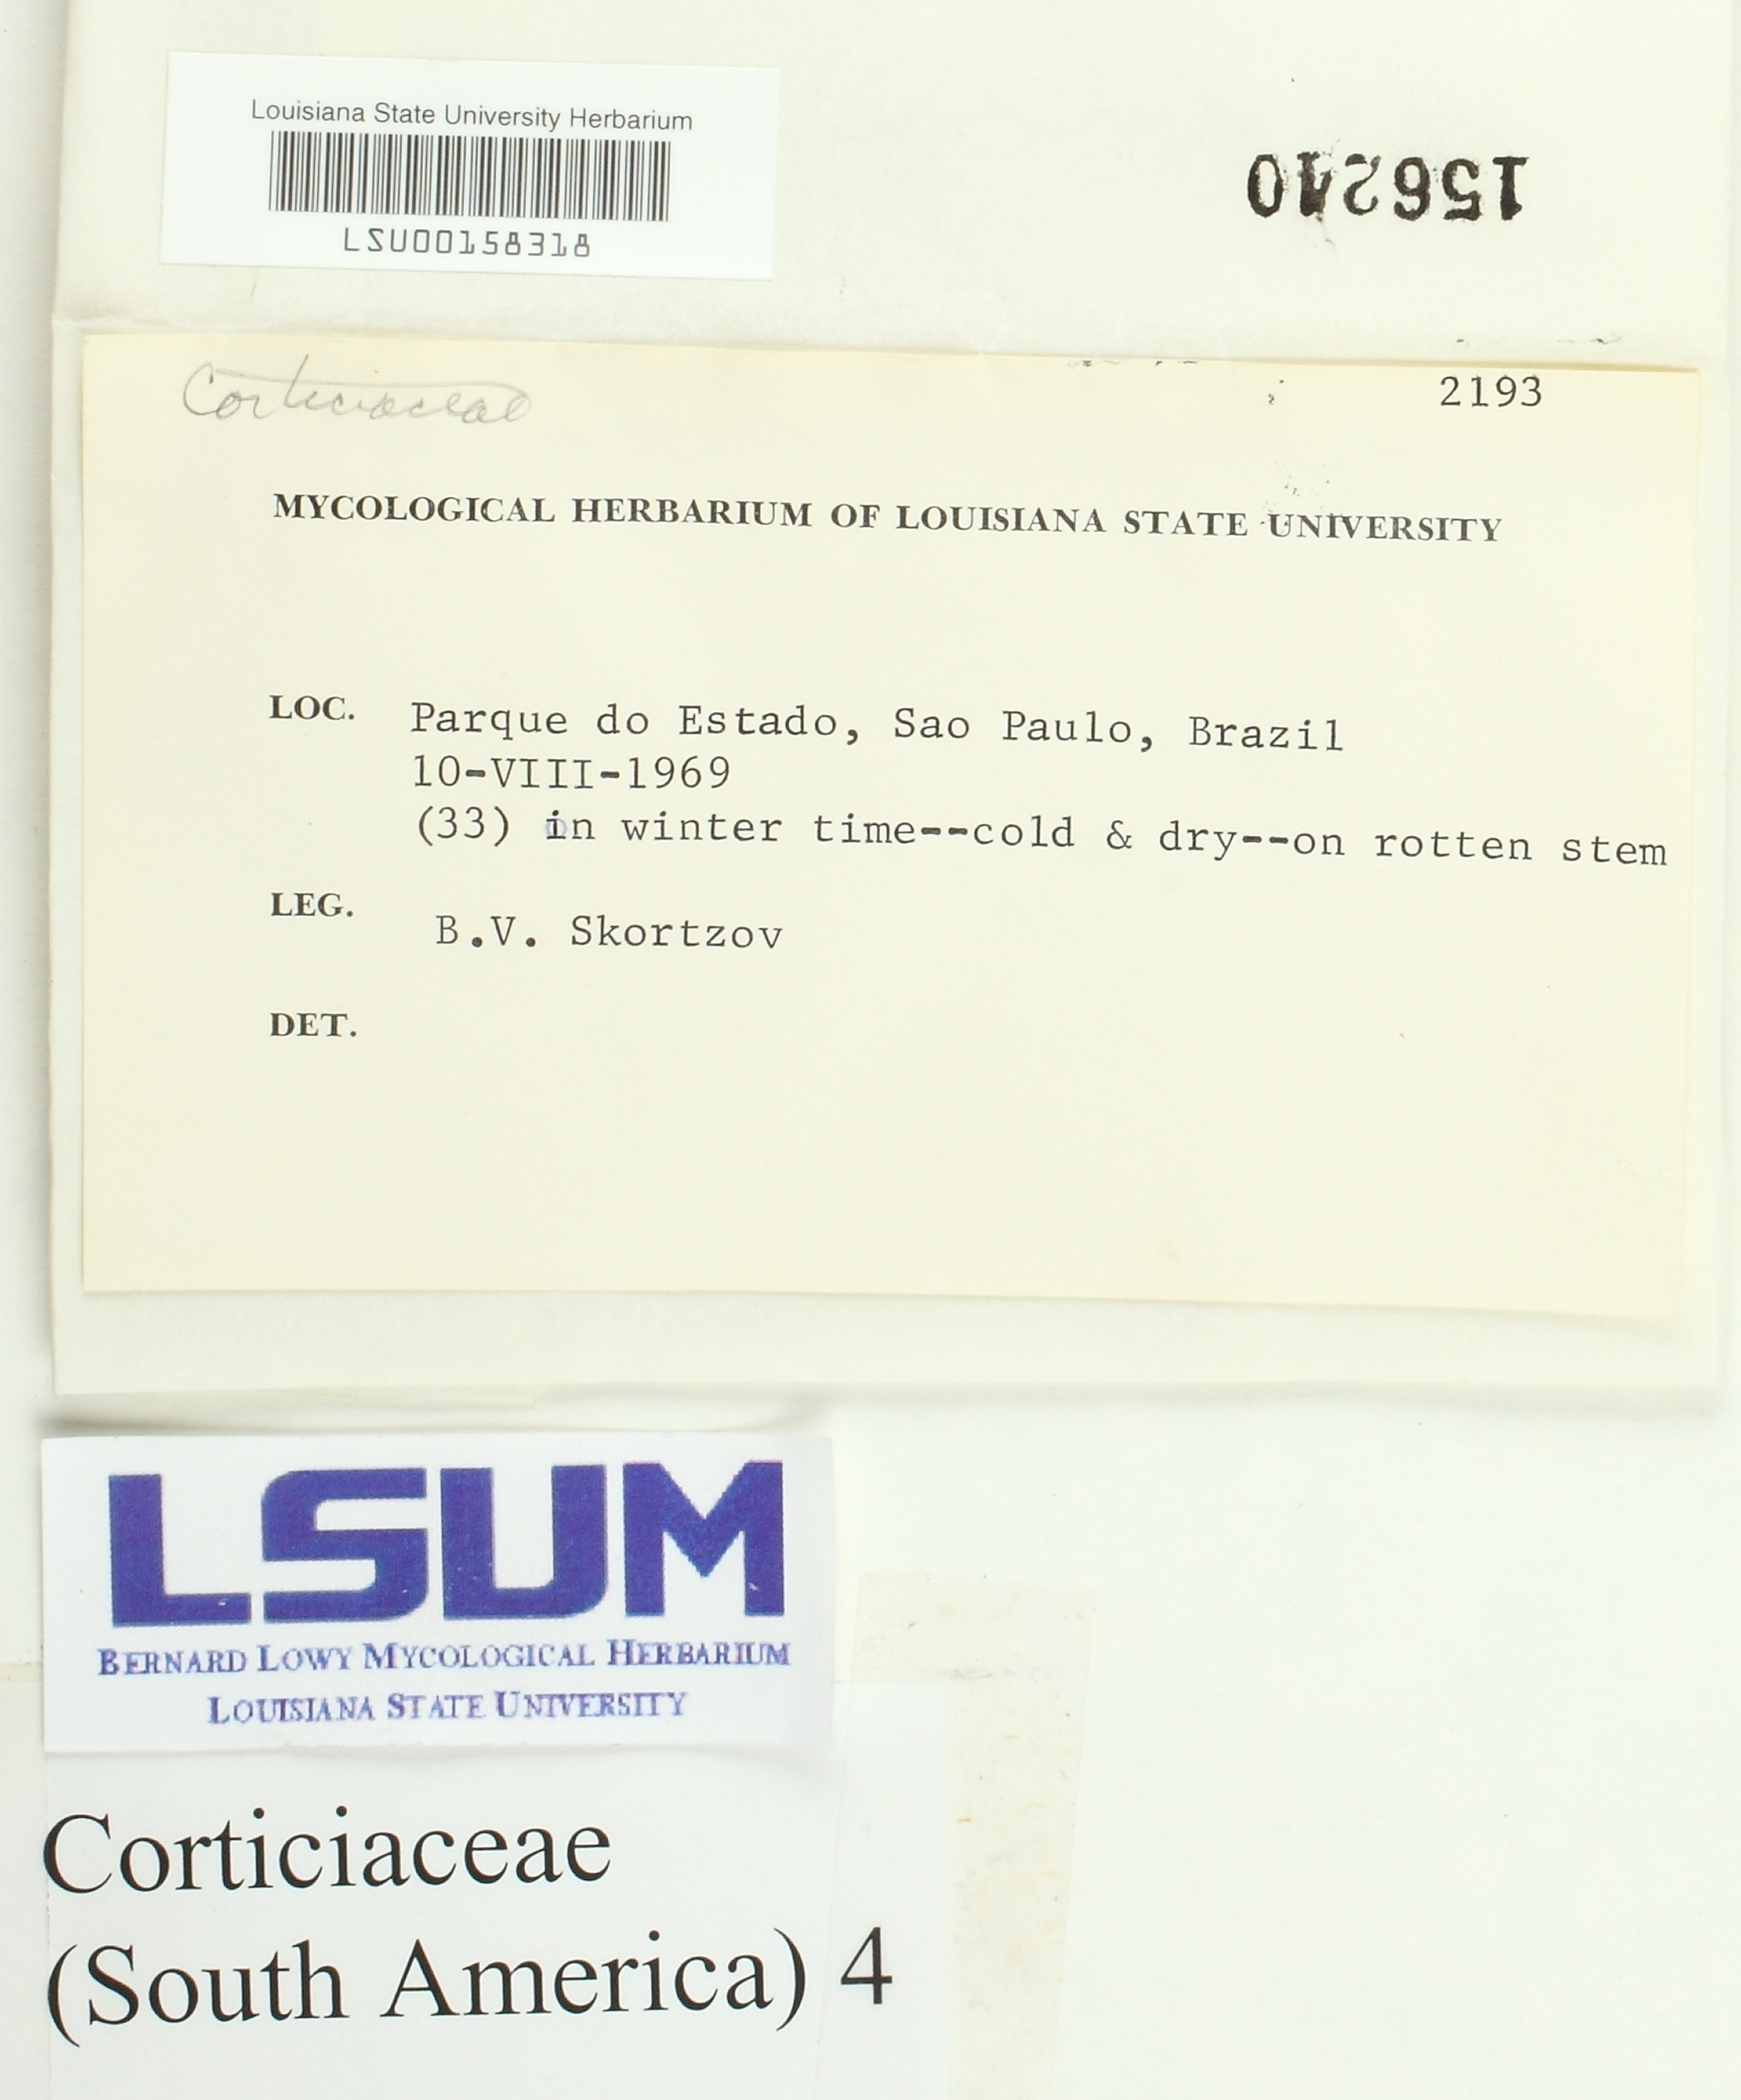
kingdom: Fungi
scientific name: Fungi
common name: Fungi
